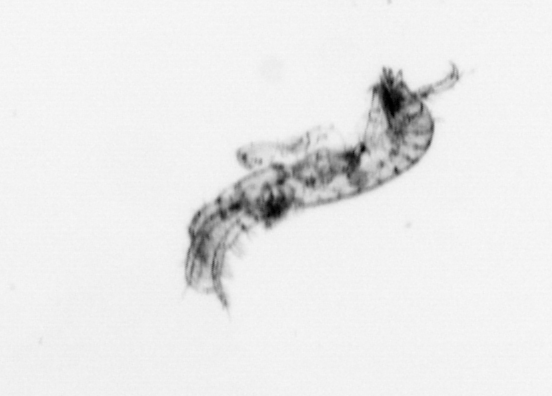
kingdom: Animalia
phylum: Arthropoda
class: Maxillopoda
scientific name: Maxillopoda
